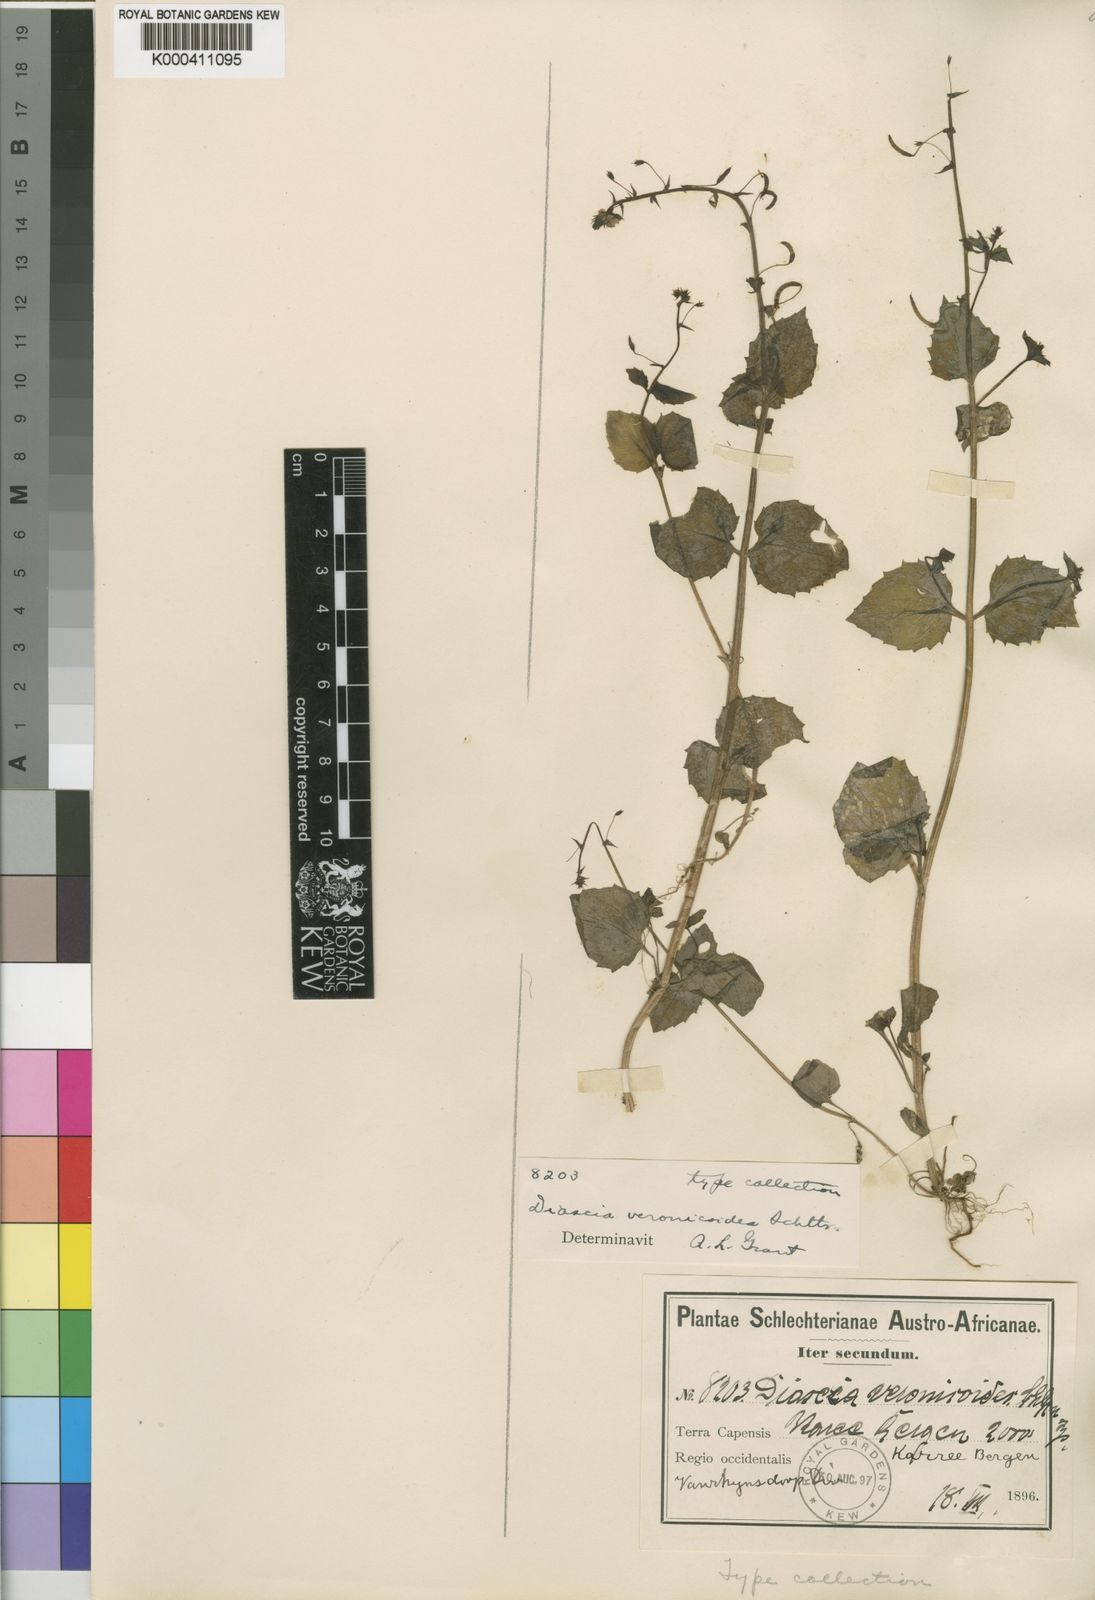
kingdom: Plantae
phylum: Tracheophyta
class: Magnoliopsida
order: Lamiales
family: Scrophulariaceae
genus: Diascia
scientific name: Diascia veronicoides
